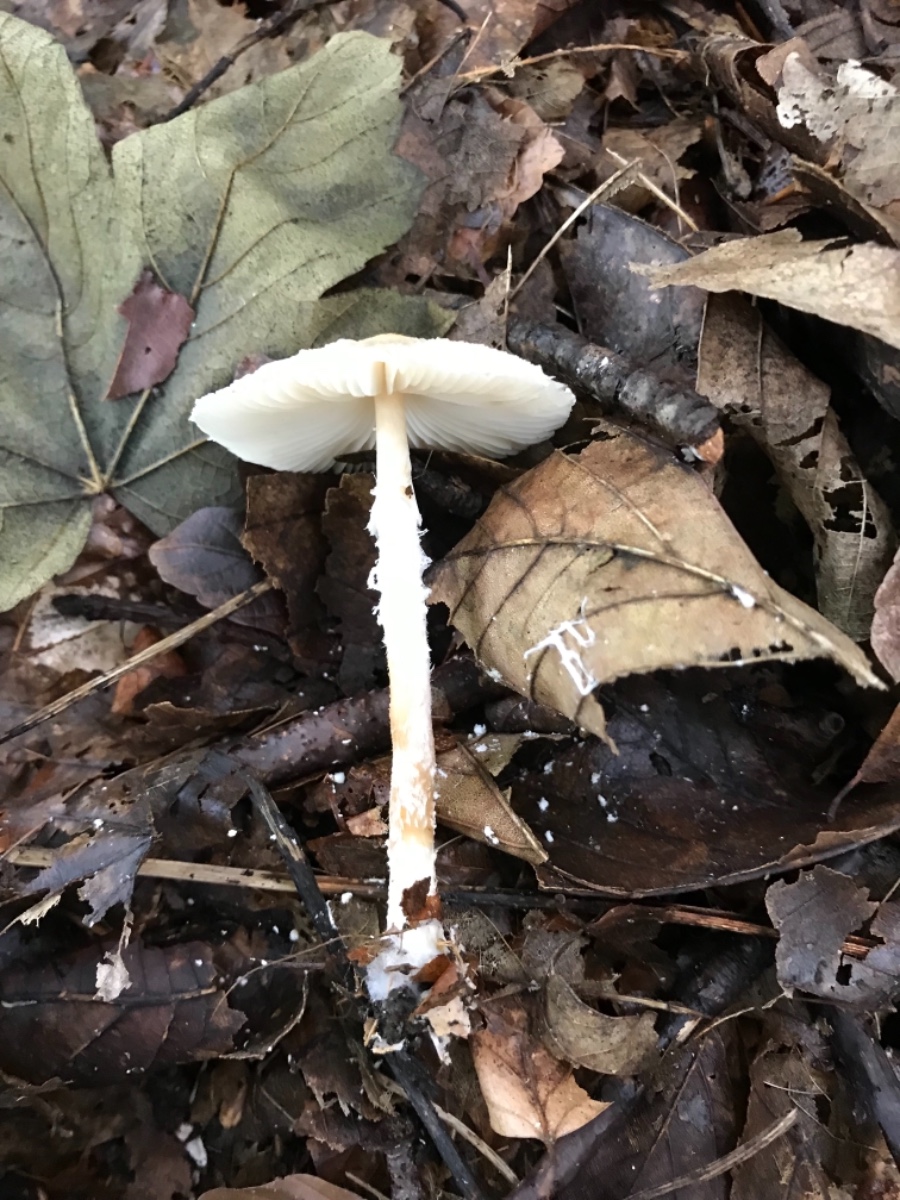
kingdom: Fungi
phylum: Basidiomycota
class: Agaricomycetes
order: Agaricales
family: Agaricaceae
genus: Lepiota
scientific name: Lepiota clypeolaria
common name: flosset parasolhat
